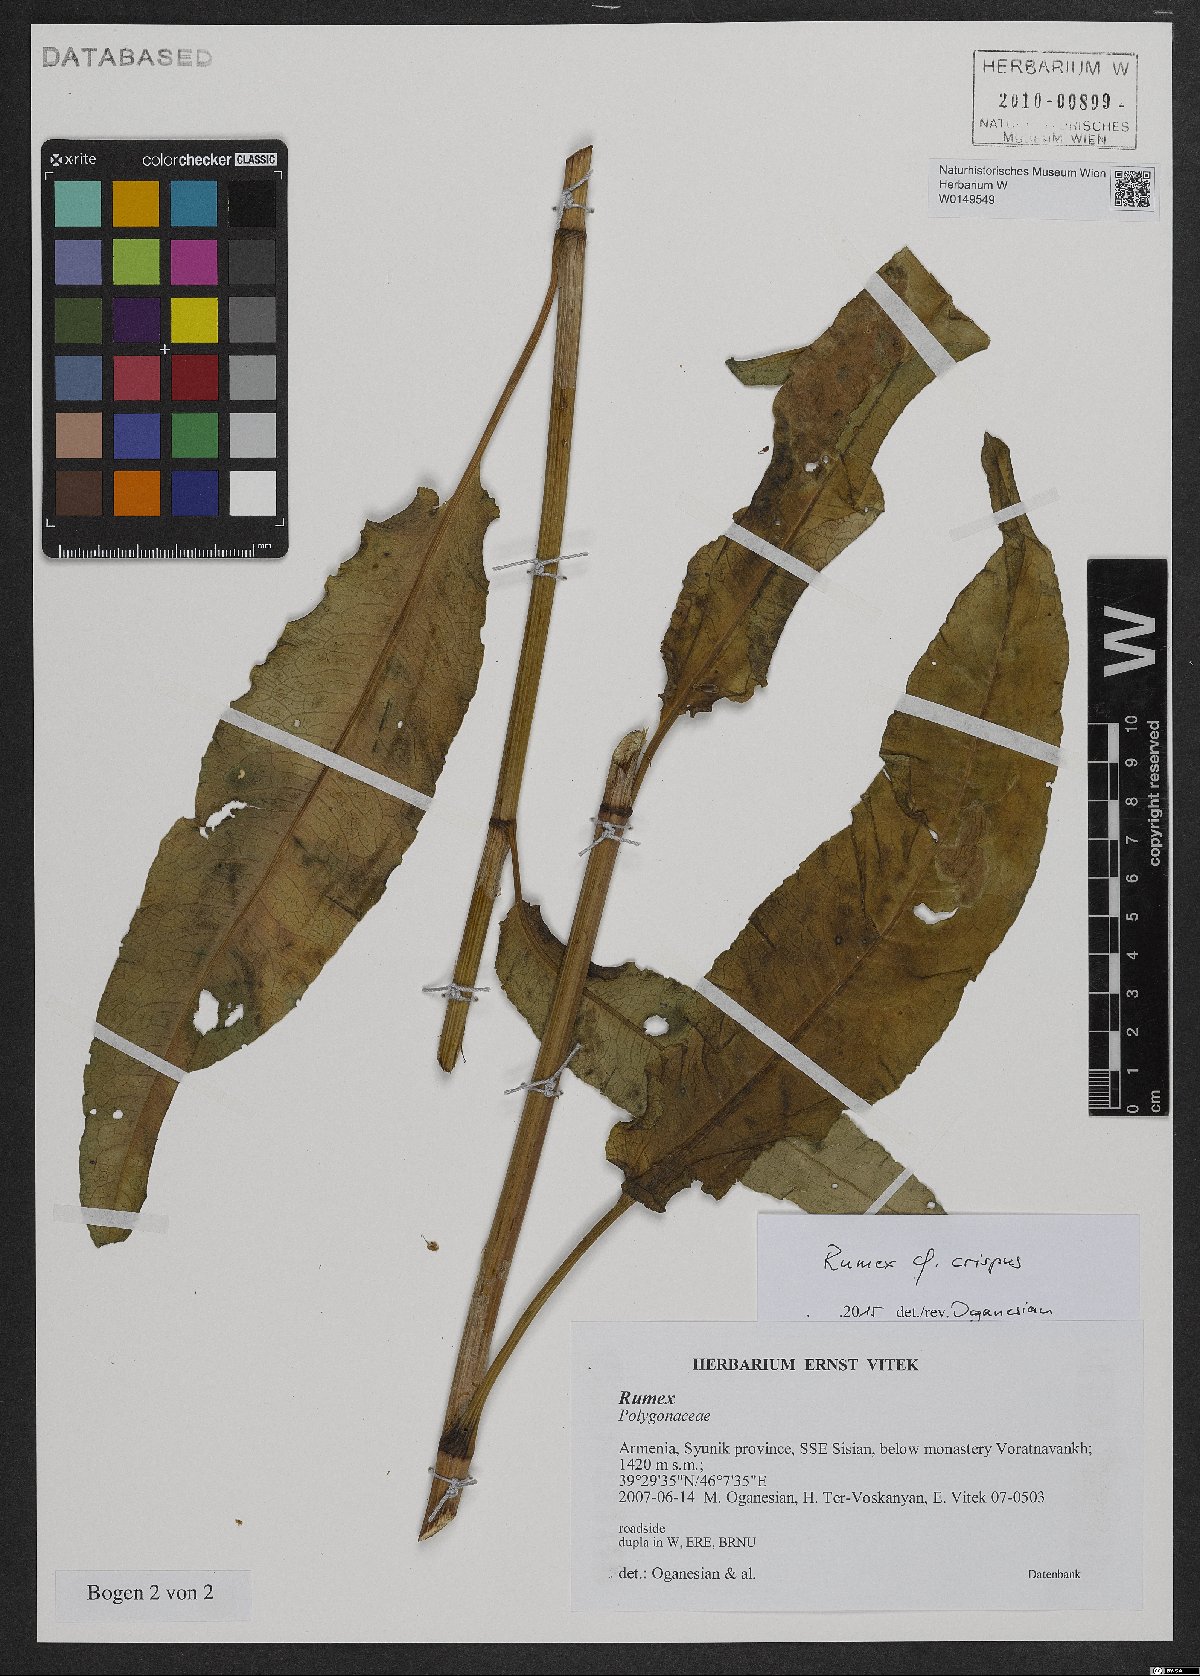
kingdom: Plantae
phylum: Tracheophyta
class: Magnoliopsida
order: Caryophyllales
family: Polygonaceae
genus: Rumex
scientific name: Rumex crispus
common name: Curled dock
